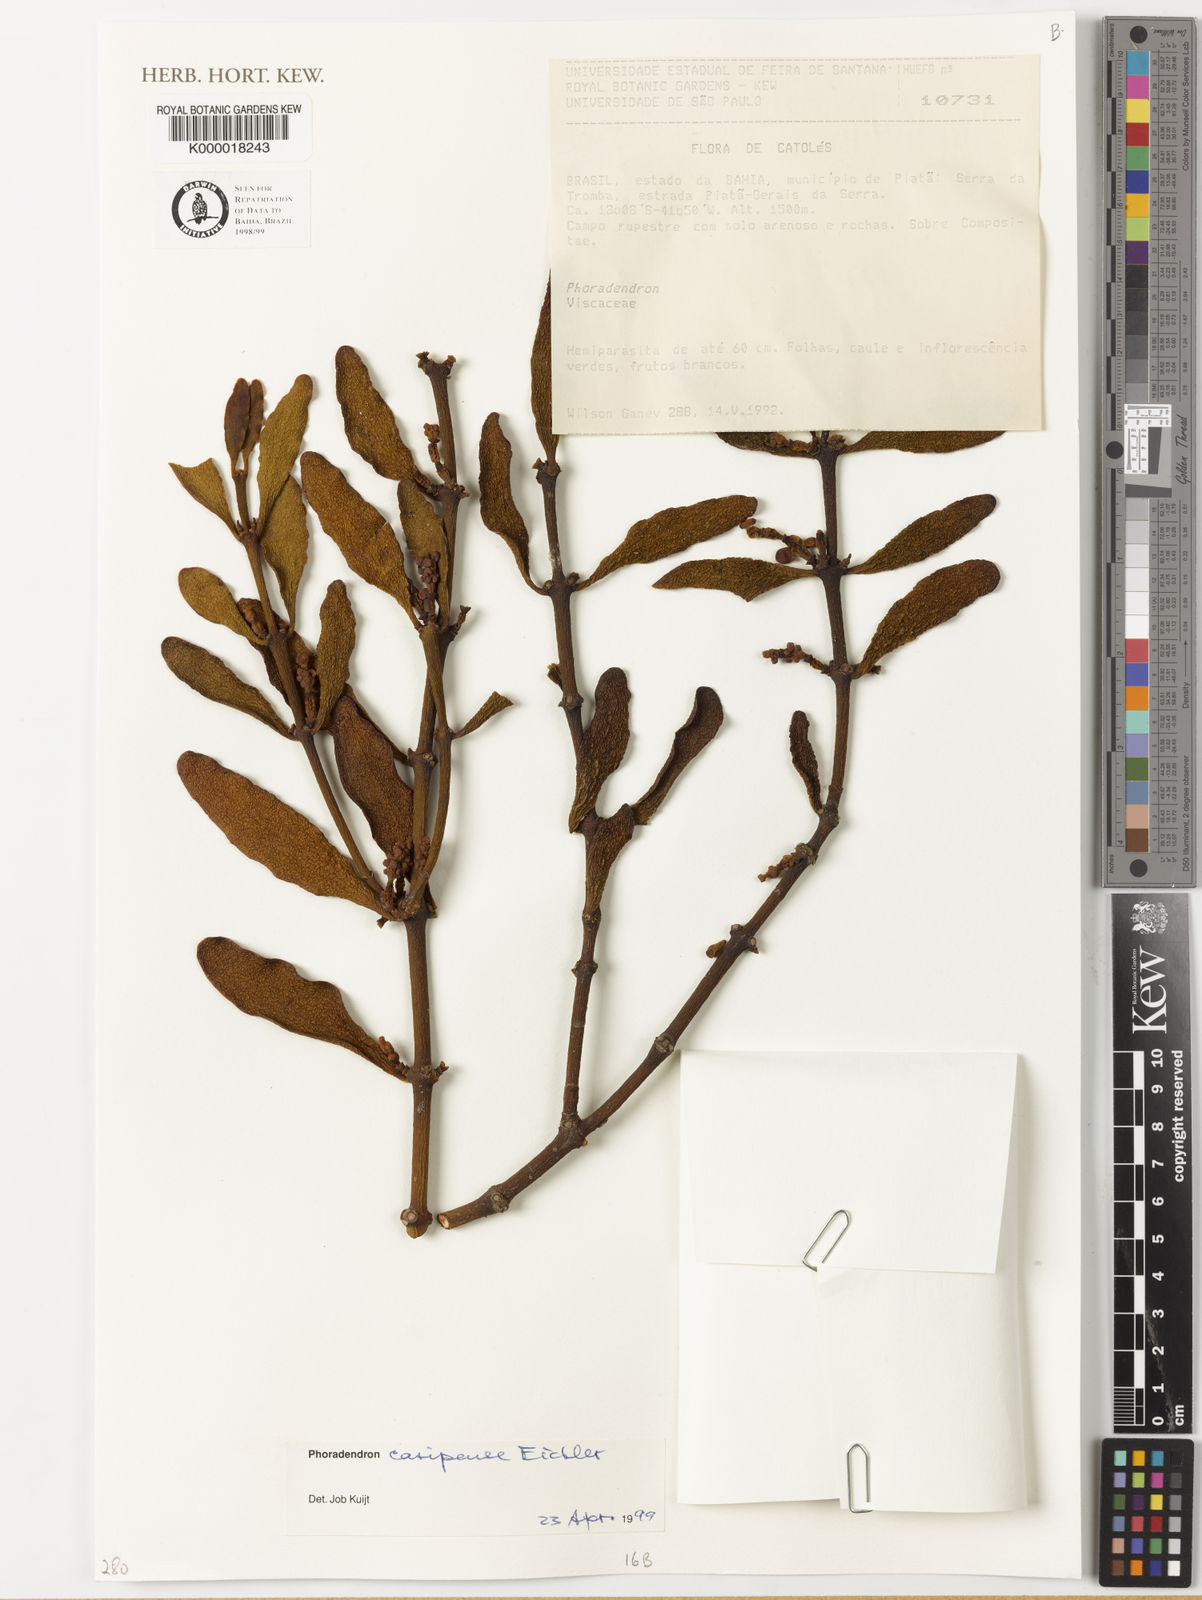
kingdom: Plantae
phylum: Tracheophyta
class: Magnoliopsida
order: Santalales
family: Viscaceae
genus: Phoradendron
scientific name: Phoradendron
